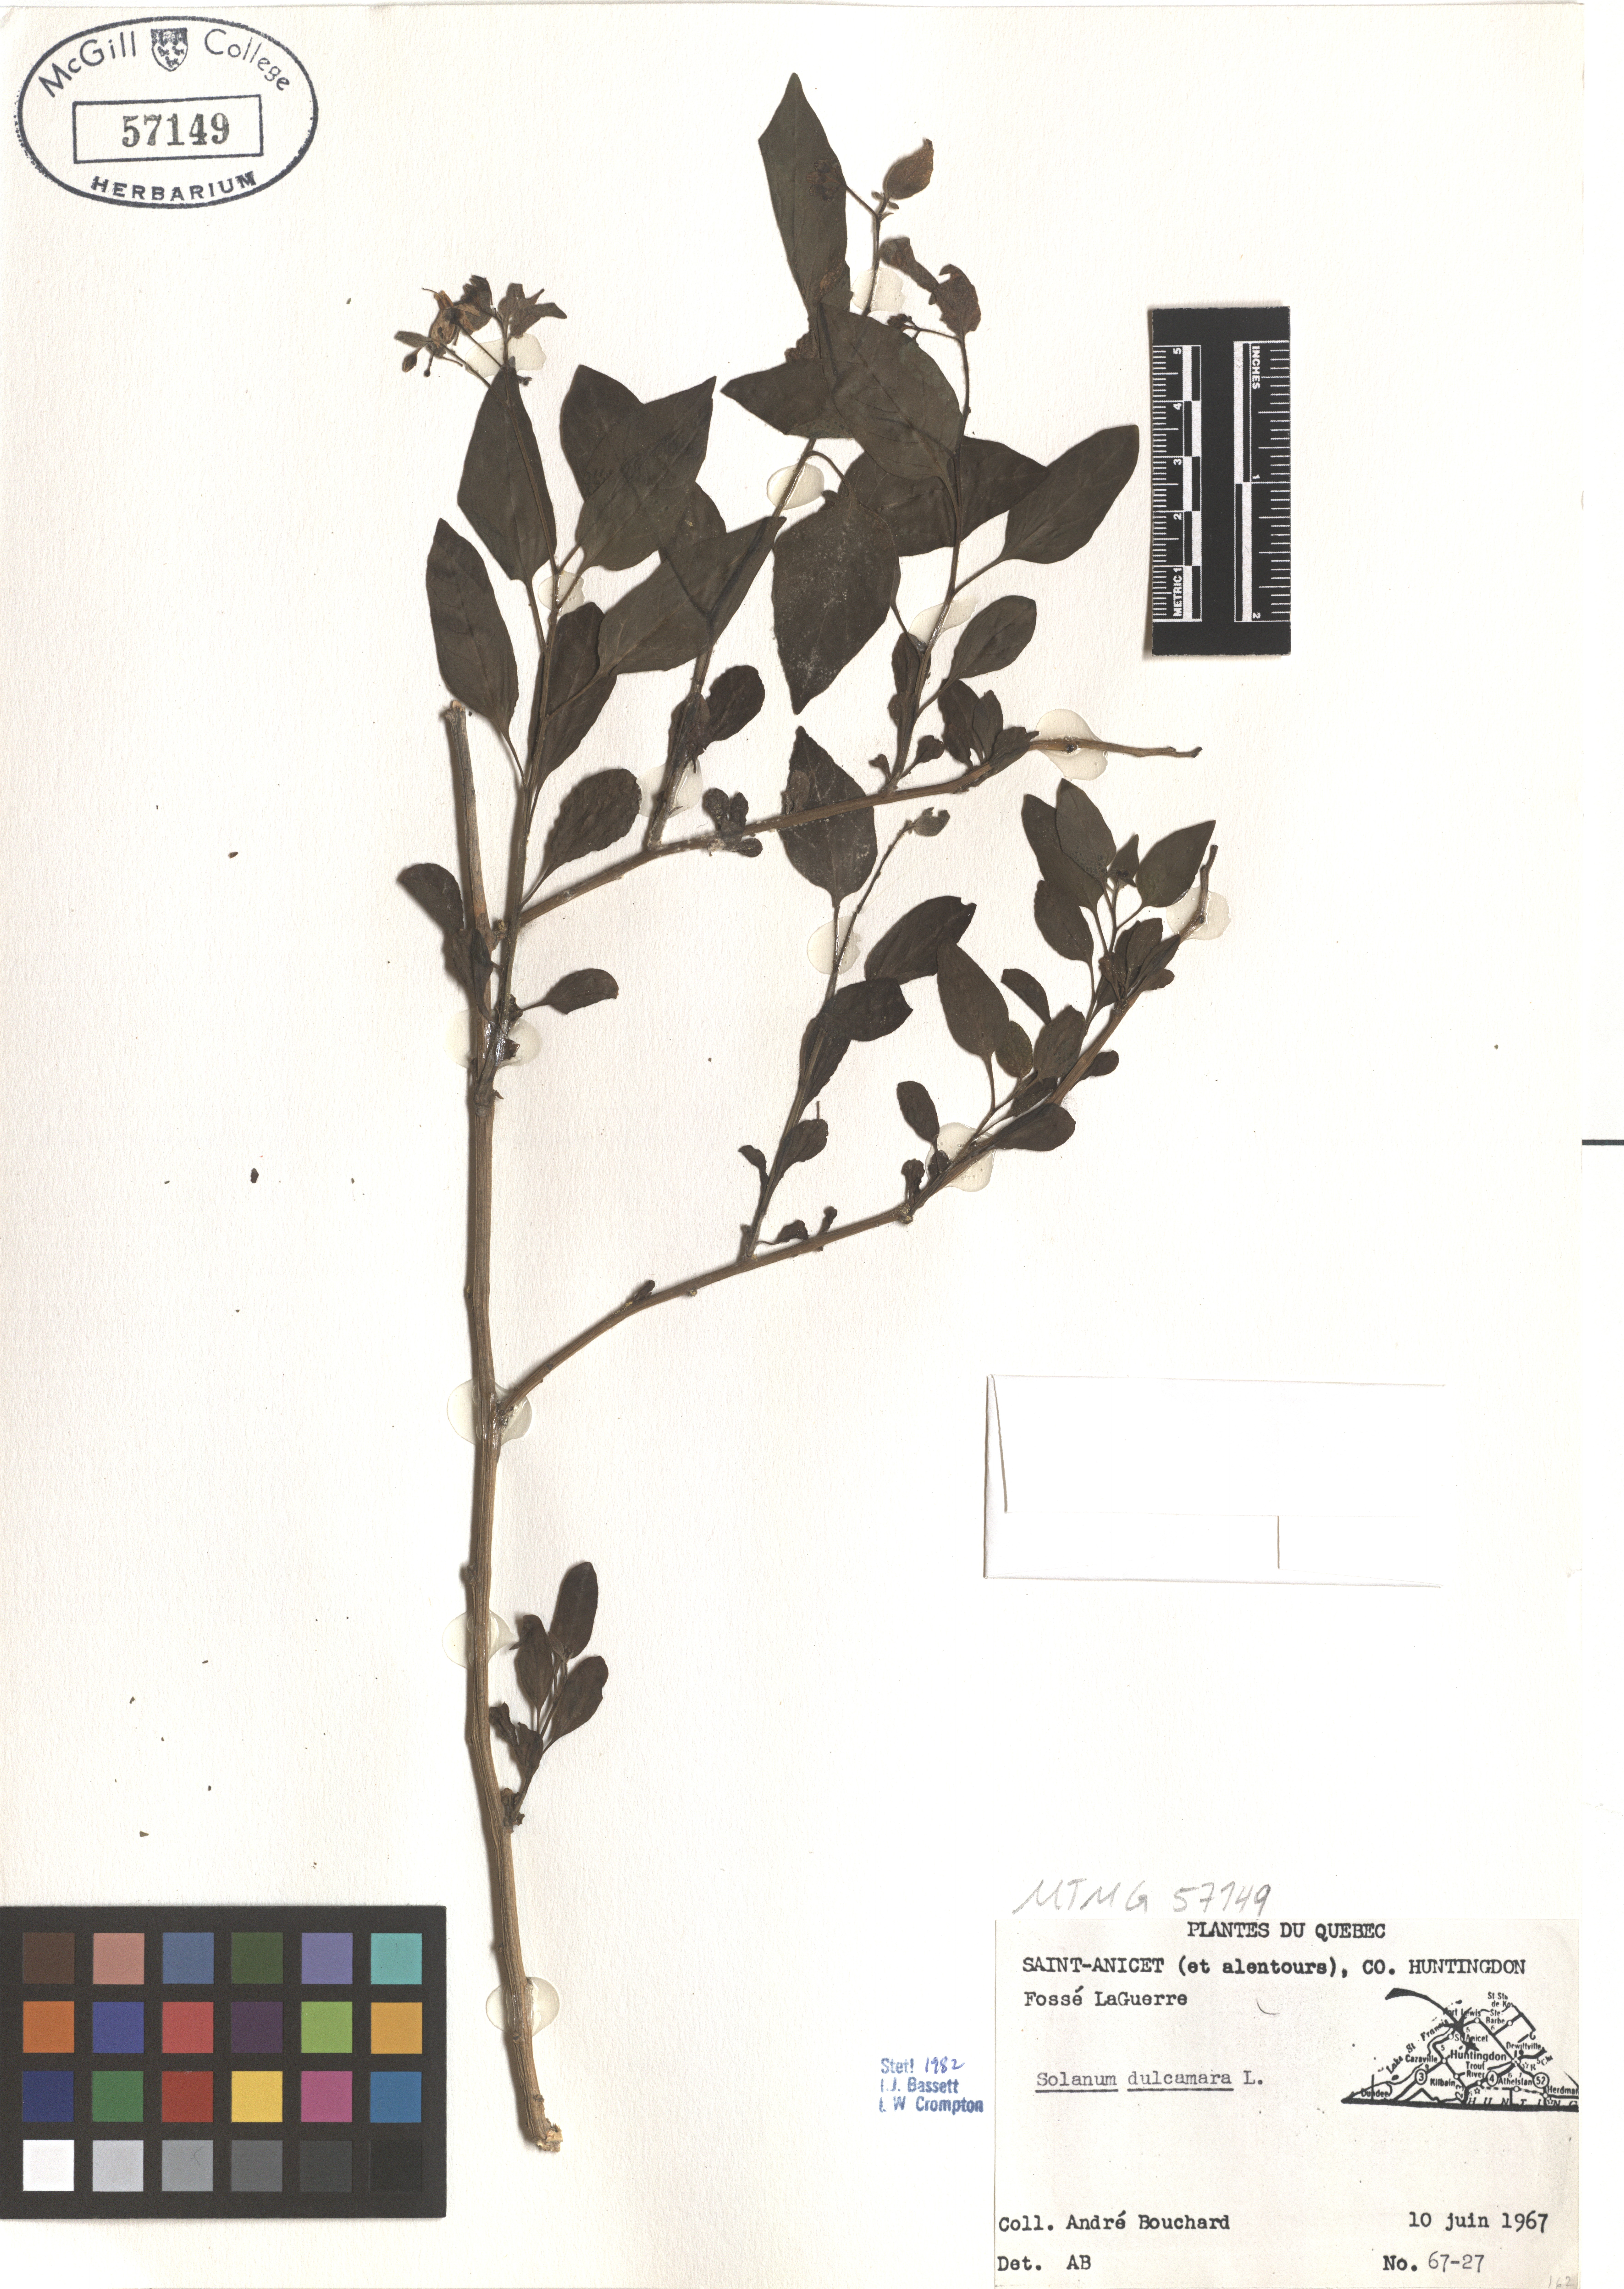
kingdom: Plantae
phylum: Tracheophyta
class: Magnoliopsida
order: Solanales
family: Solanaceae
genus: Solanum
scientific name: Solanum dulcamara
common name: Climbing nightshade
